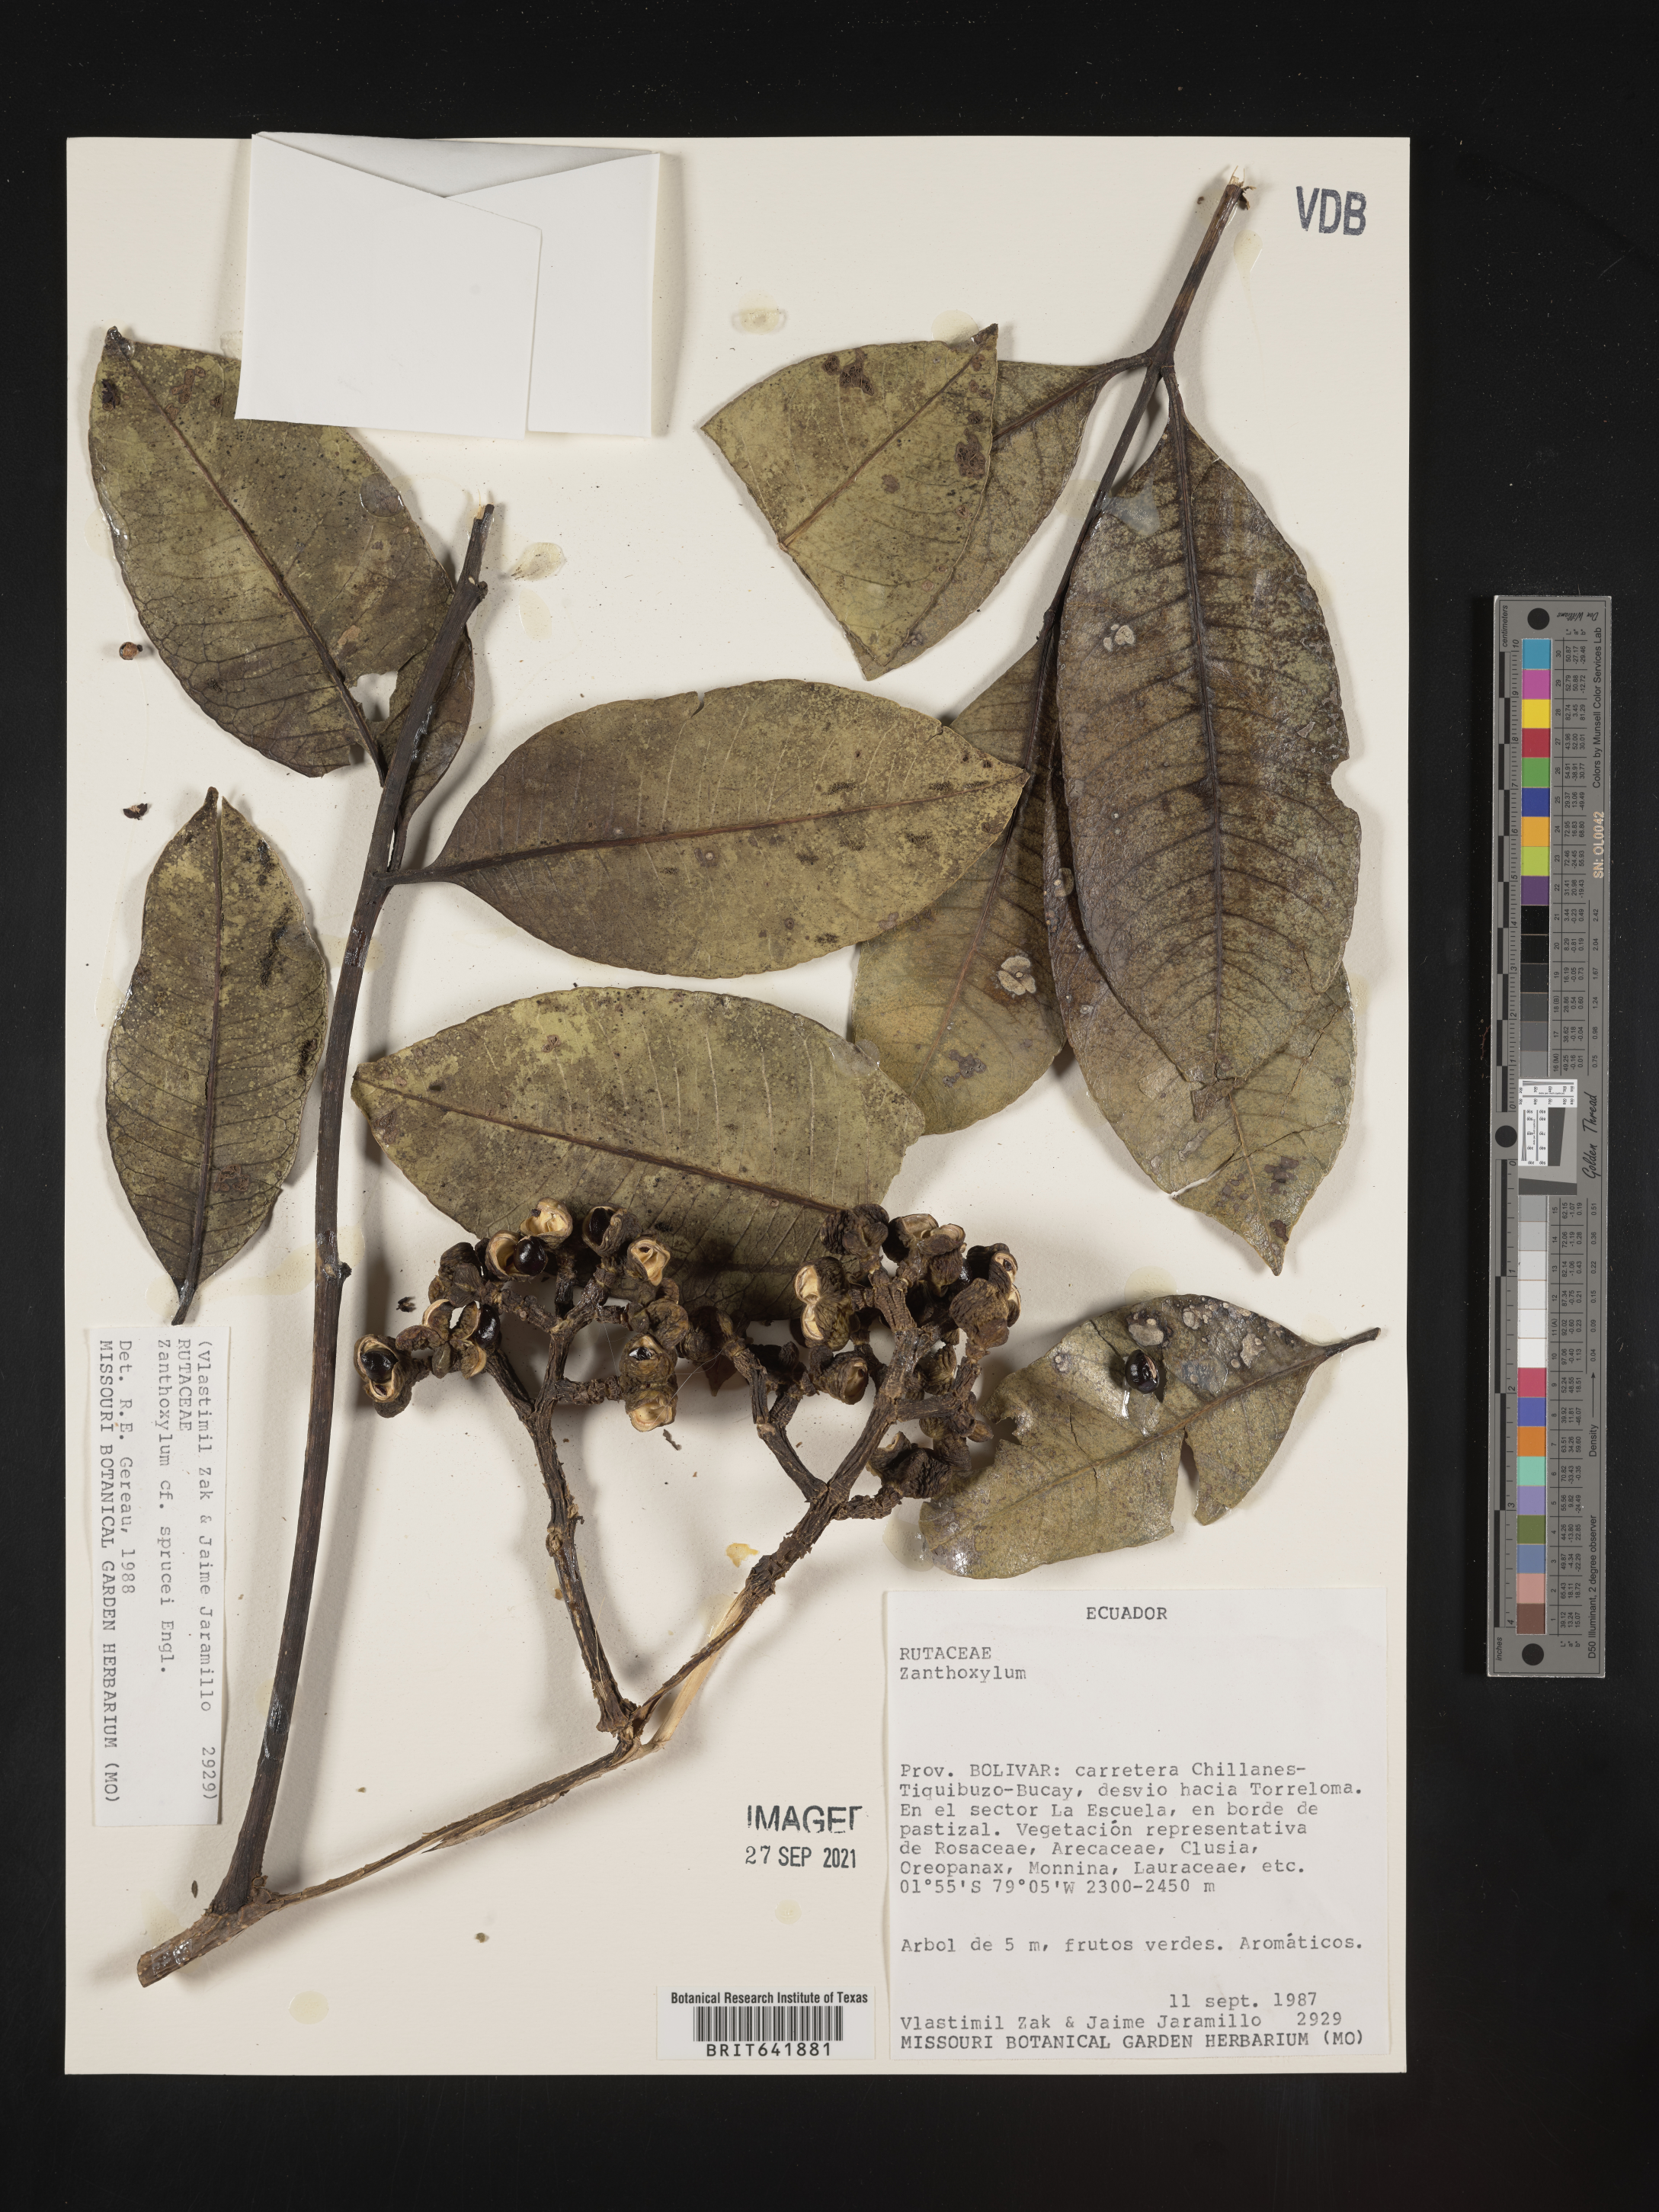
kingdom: Plantae
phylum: Tracheophyta
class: Magnoliopsida
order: Sapindales
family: Rutaceae
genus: Zanthoxylum
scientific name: Zanthoxylum
